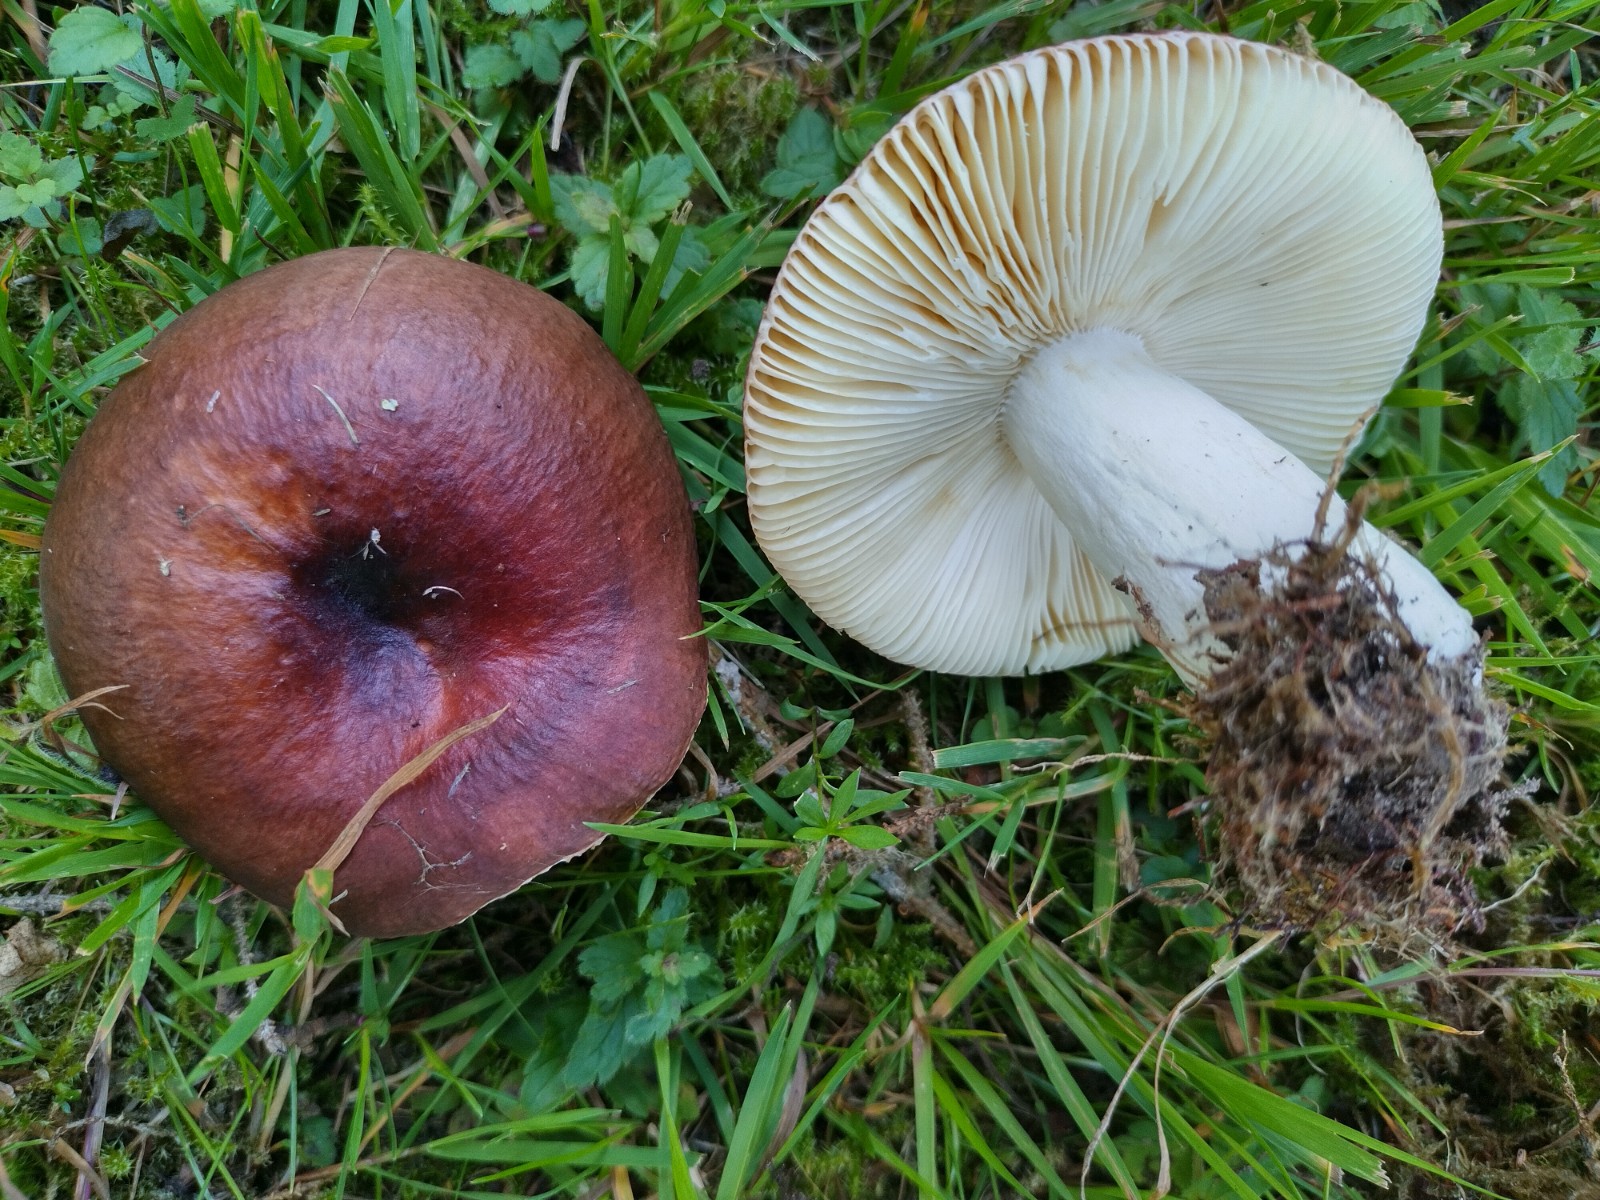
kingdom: Fungi
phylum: Basidiomycota
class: Agaricomycetes
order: Russulales
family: Russulaceae
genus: Russula
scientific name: Russula integra
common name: mandel-skørhat
